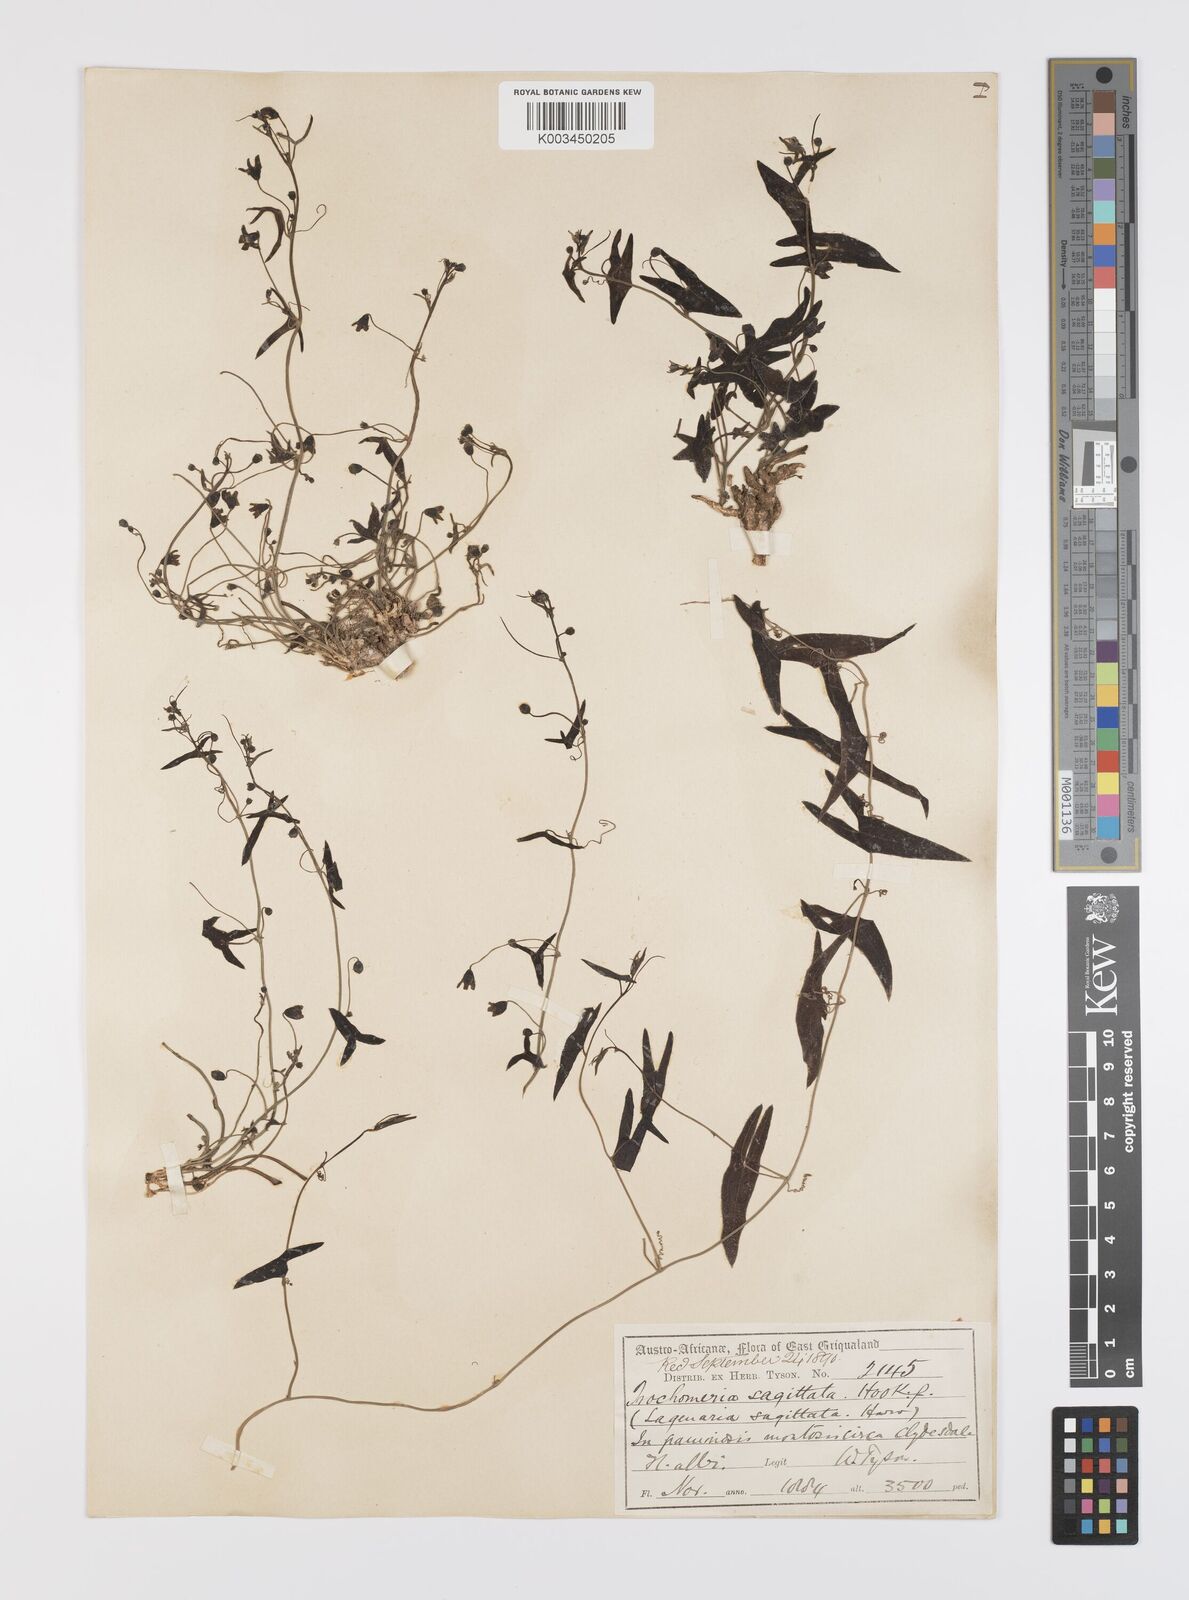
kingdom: Plantae
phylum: Tracheophyta
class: Magnoliopsida
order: Cucurbitales
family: Cucurbitaceae
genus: Trochomeria
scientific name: Trochomeria sagittata
